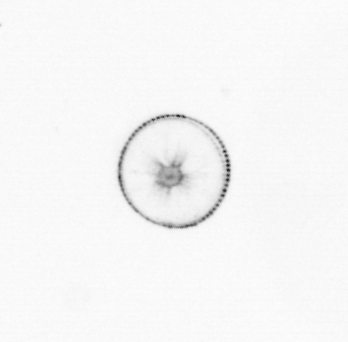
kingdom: Chromista
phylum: Myzozoa
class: Dinophyceae
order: Noctilucales
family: Noctilucaceae
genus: Noctiluca
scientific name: Noctiluca scintillans
